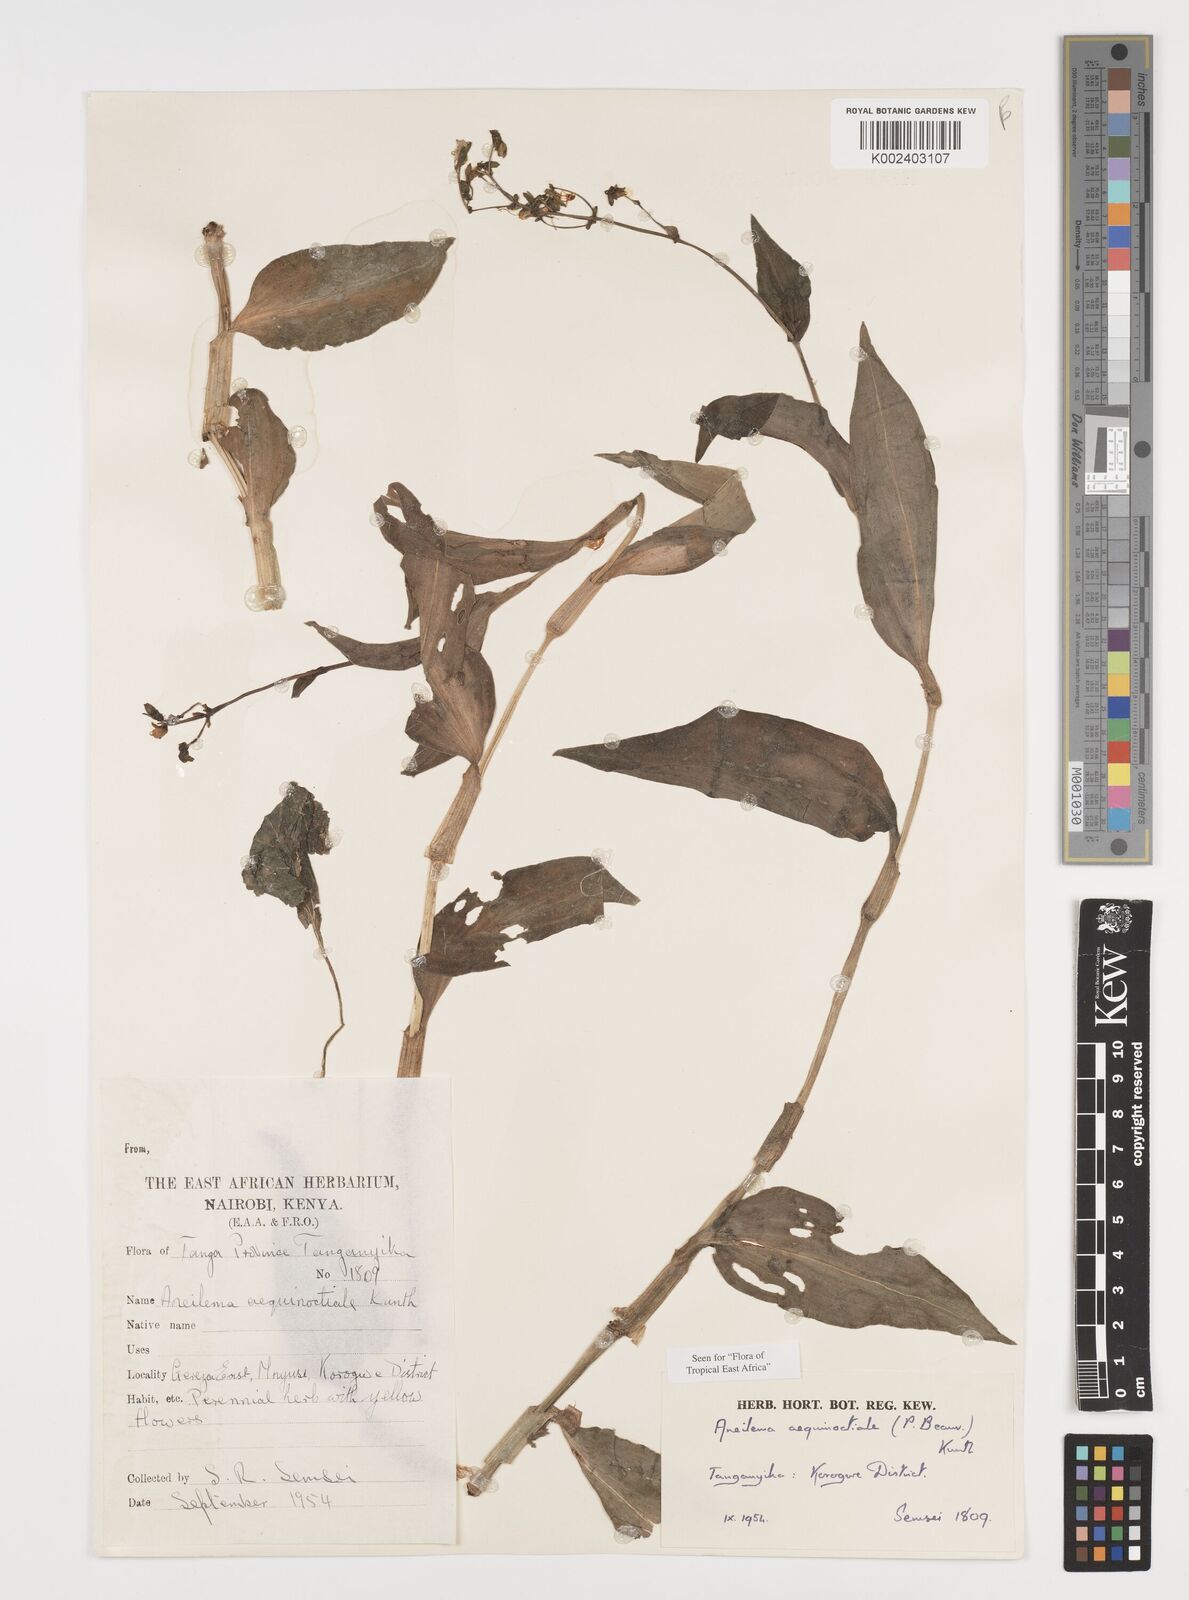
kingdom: Plantae
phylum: Tracheophyta
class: Liliopsida
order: Commelinales
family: Commelinaceae
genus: Aneilema
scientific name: Aneilema aequinoctiale
